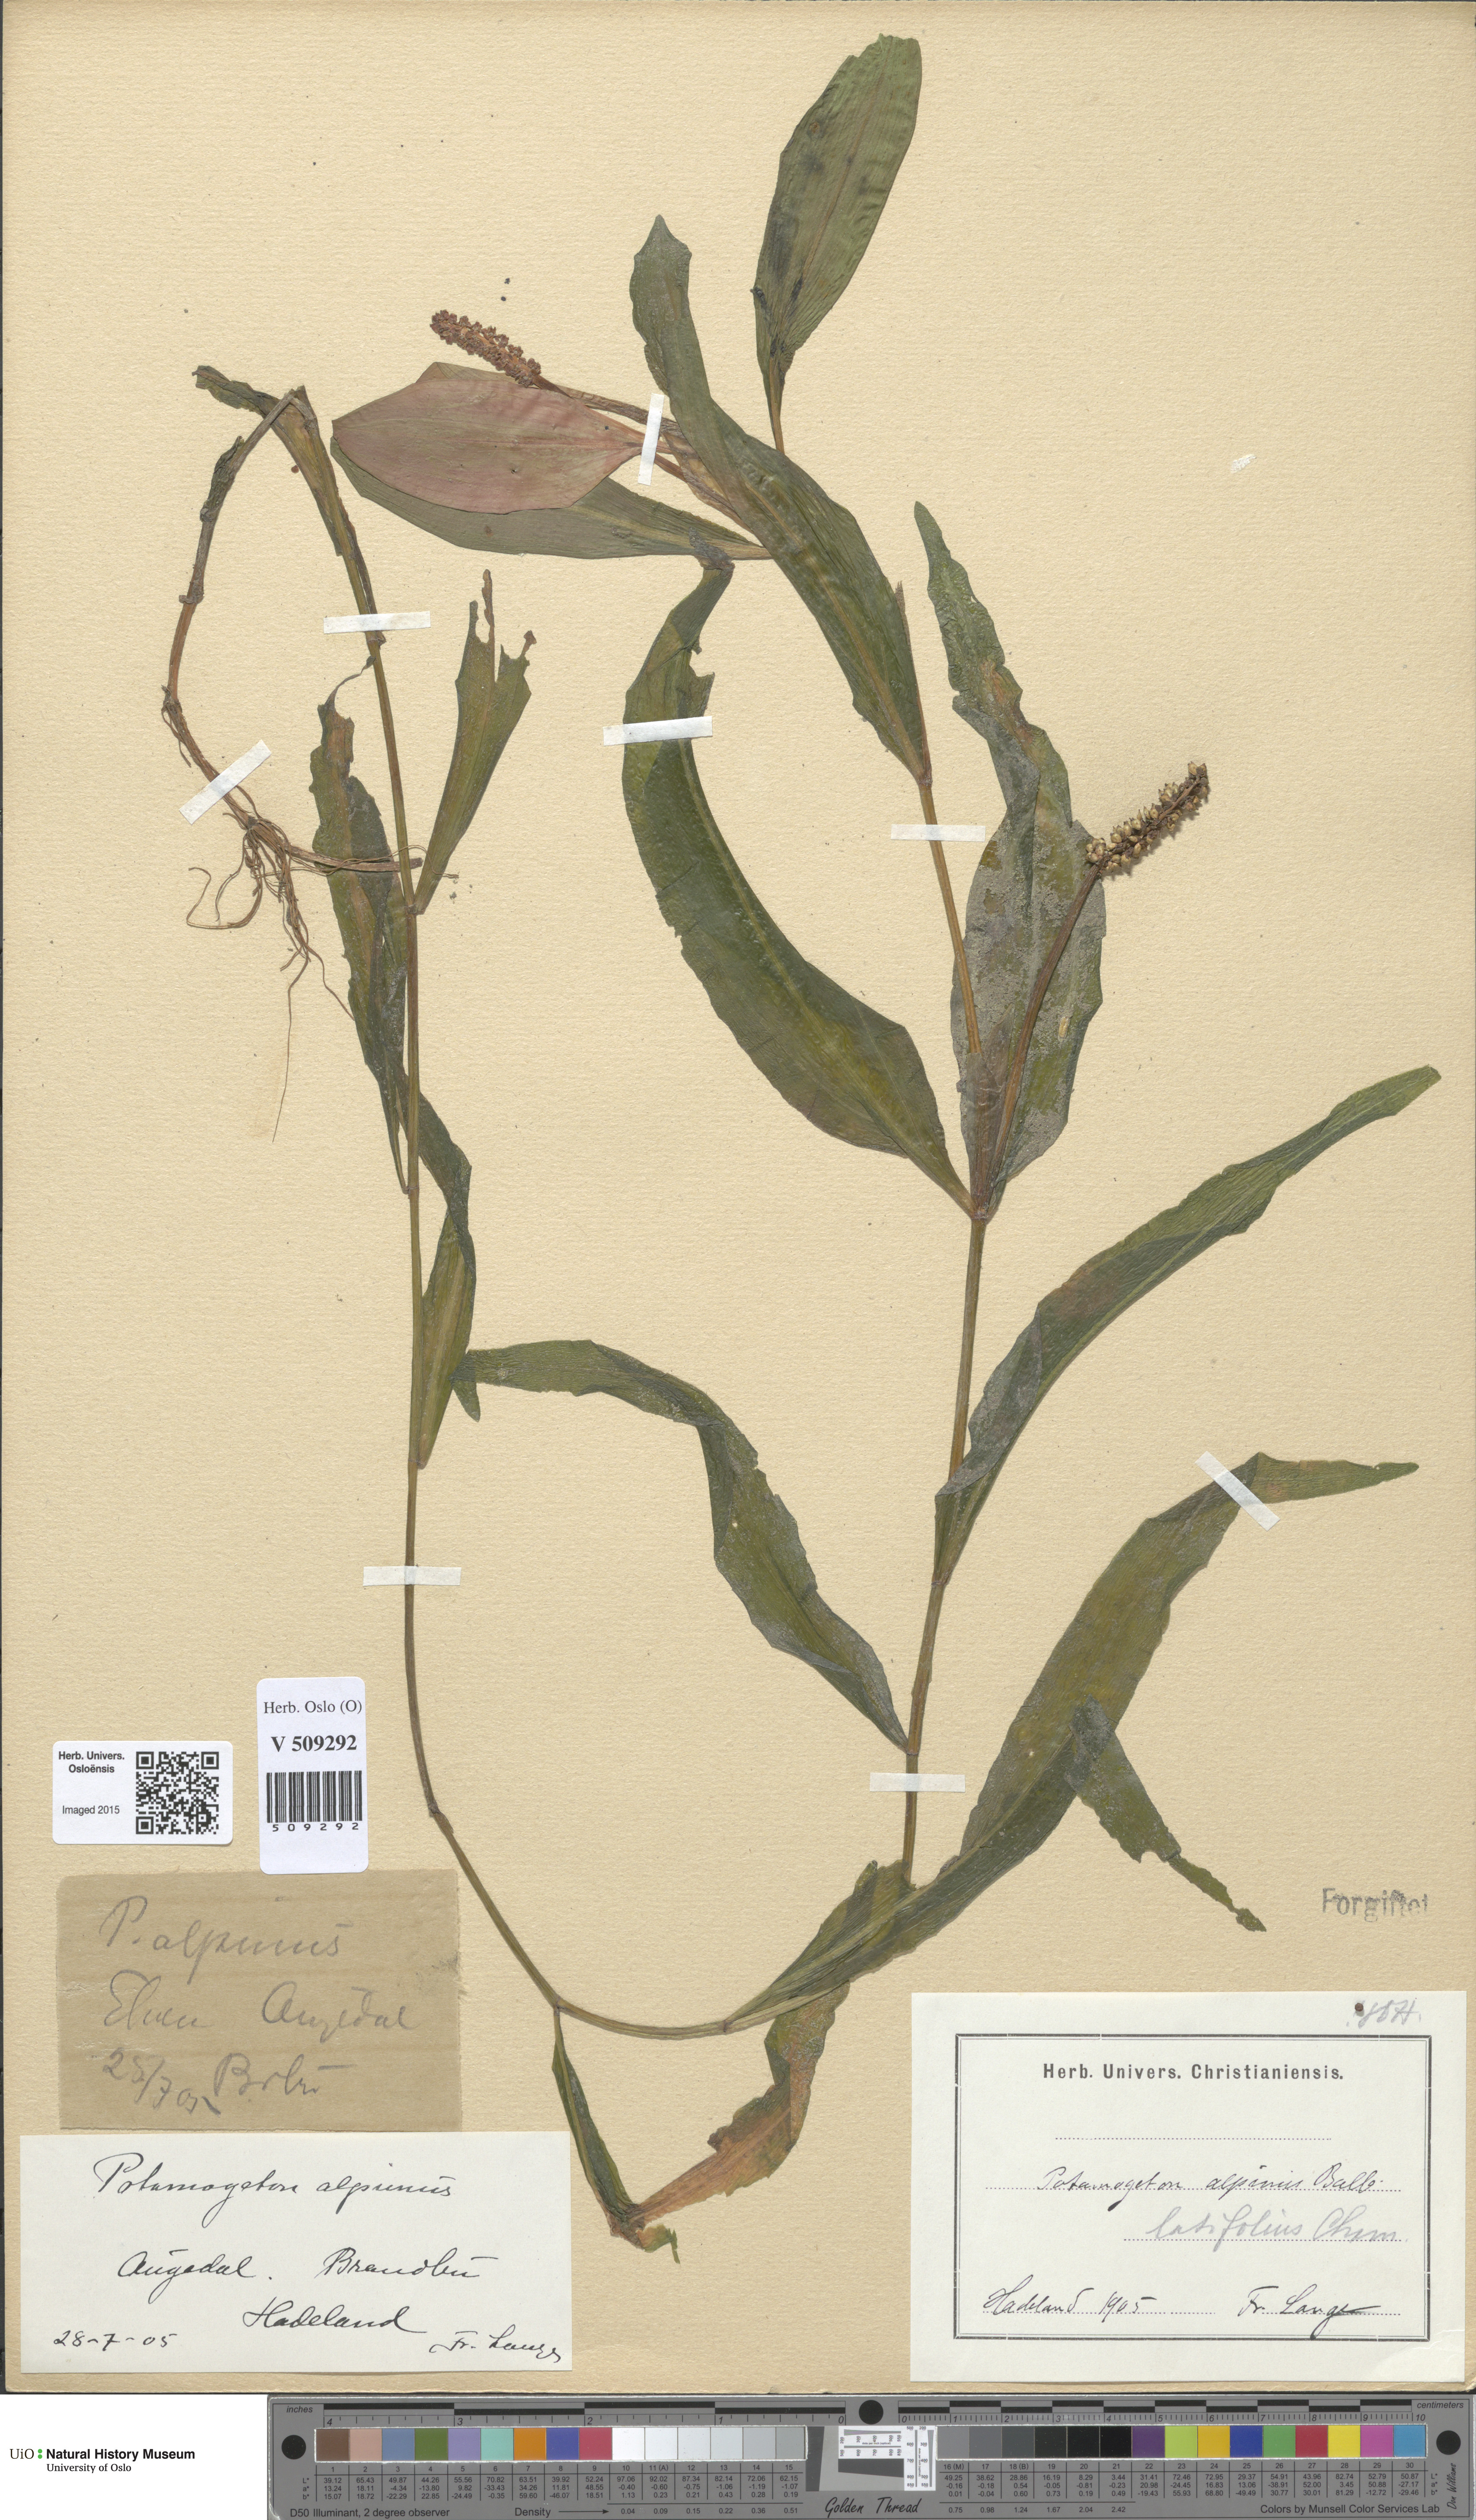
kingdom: Plantae
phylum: Tracheophyta
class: Liliopsida
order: Alismatales
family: Potamogetonaceae
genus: Potamogeton
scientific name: Potamogeton alpinus
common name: Red pondweed
